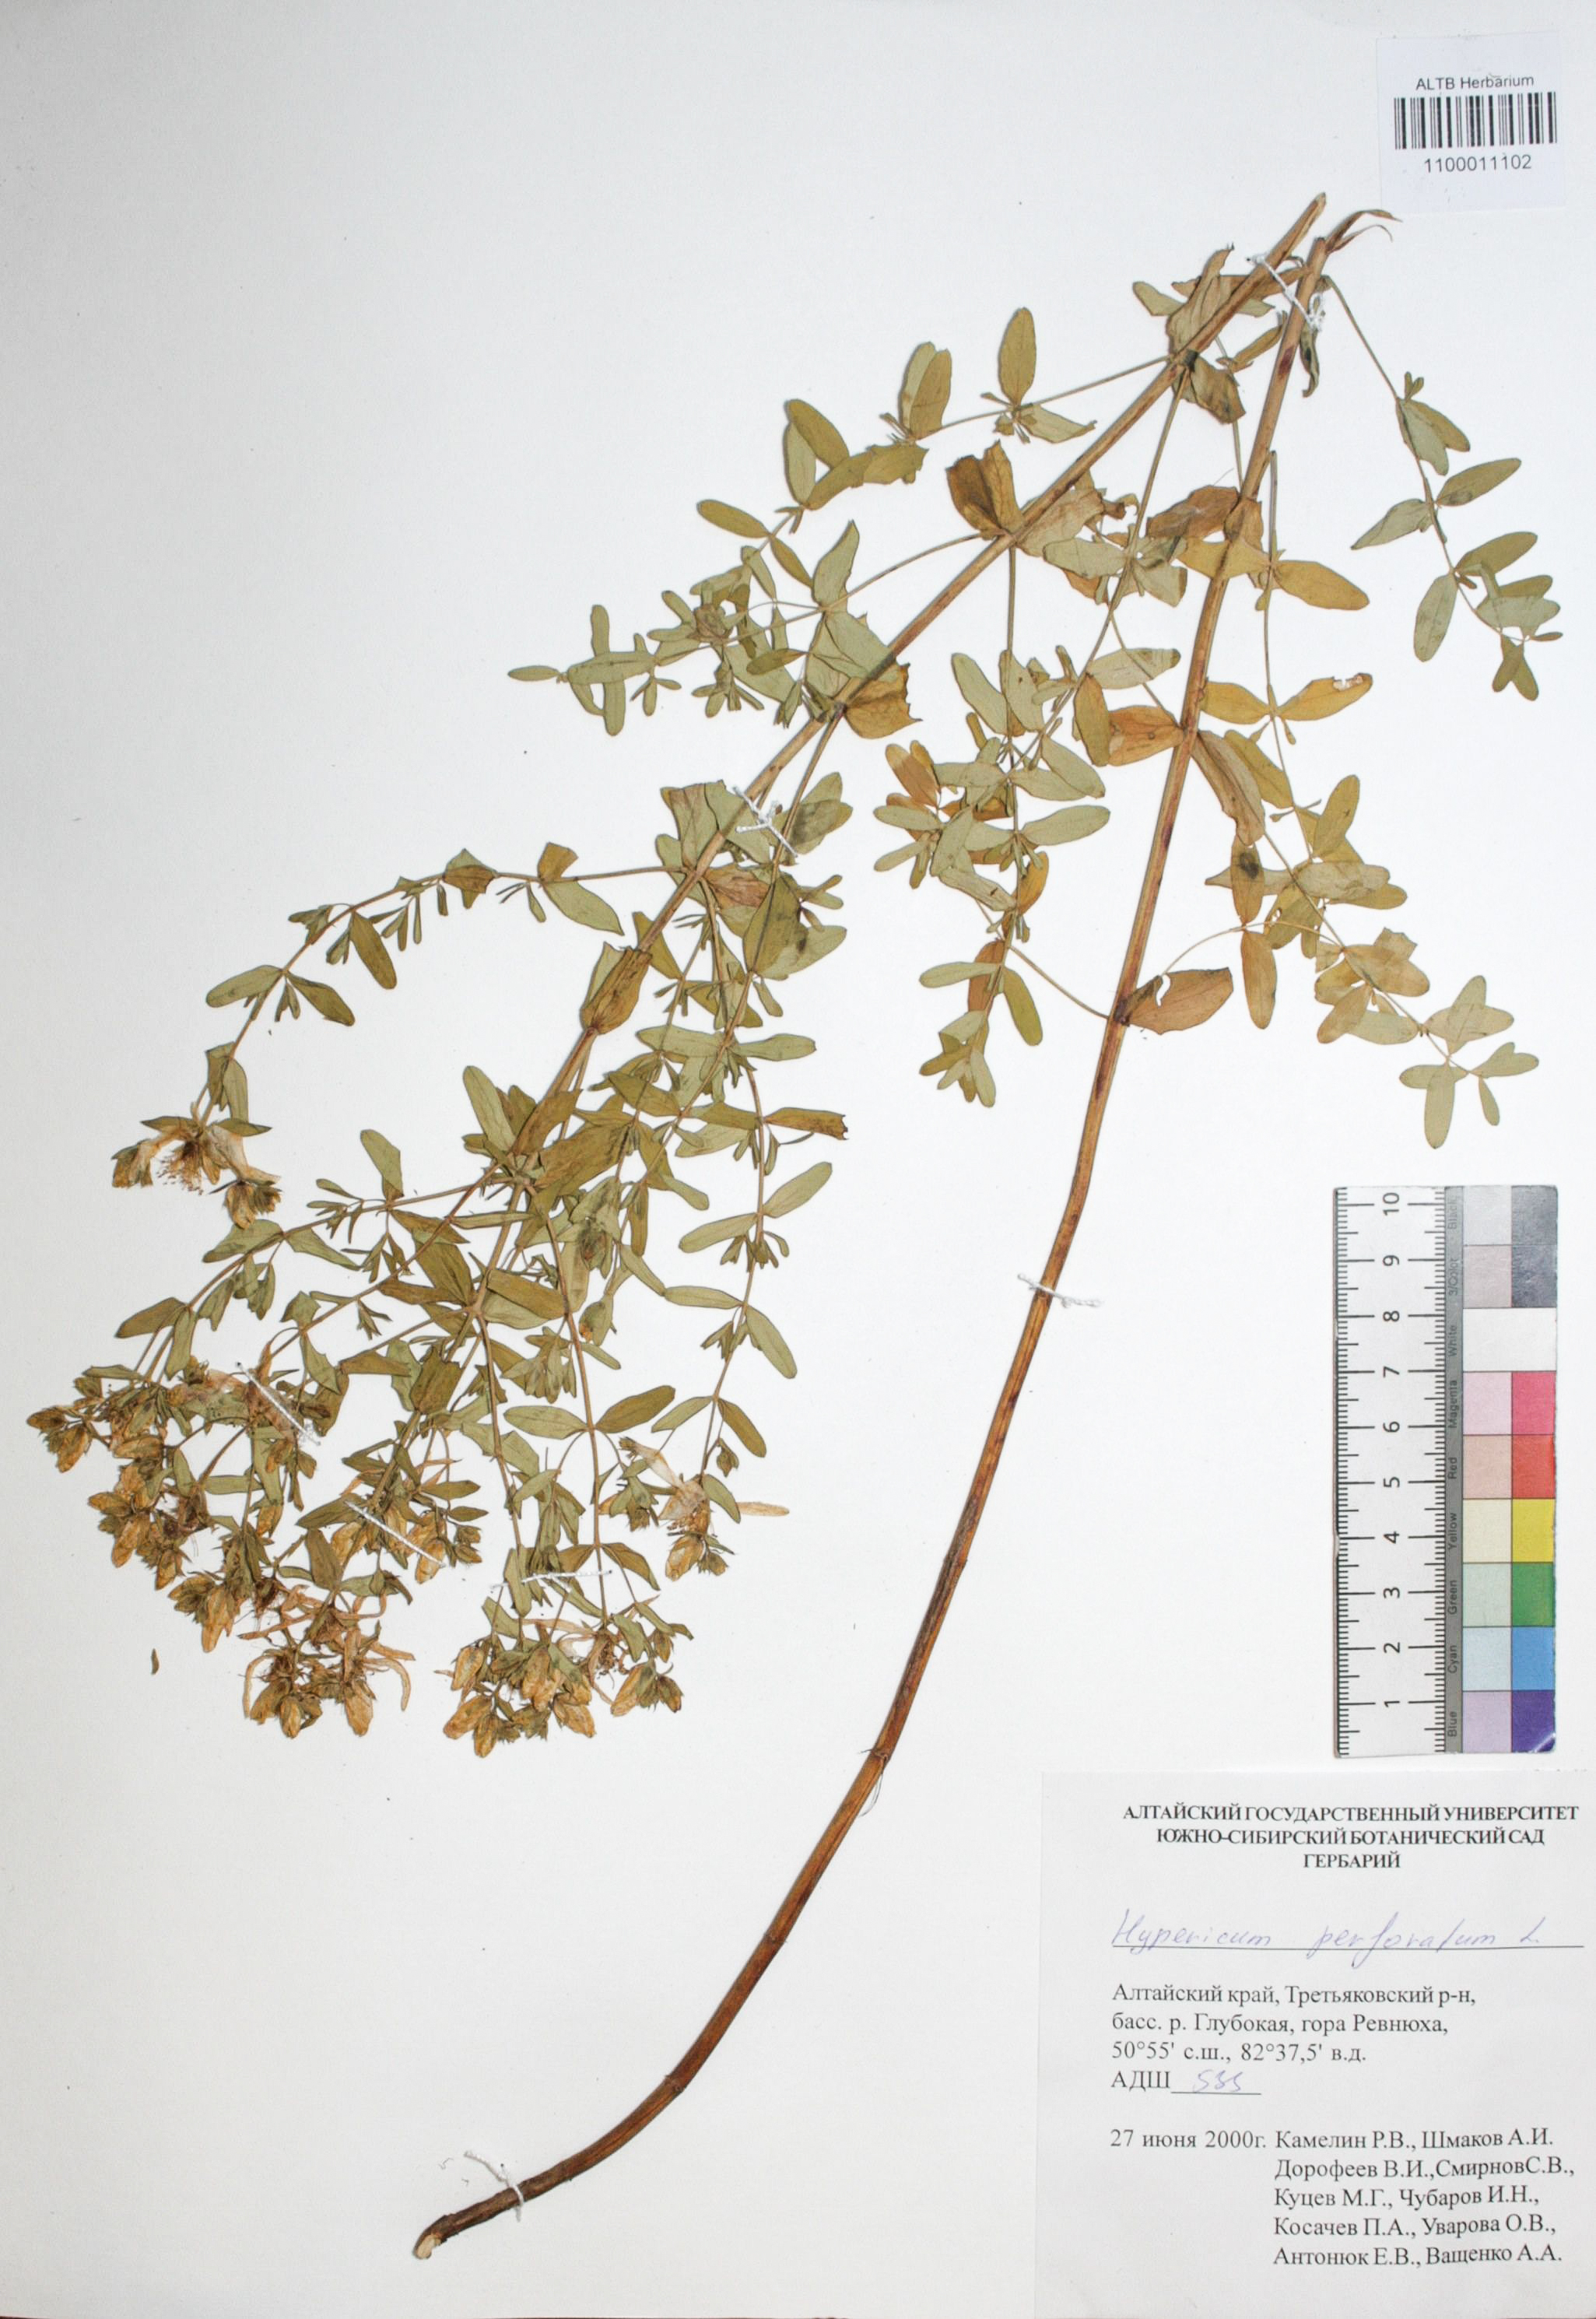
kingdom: Plantae
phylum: Tracheophyta
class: Magnoliopsida
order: Malpighiales
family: Hypericaceae
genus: Hypericum
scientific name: Hypericum perforatum
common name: Common st. johnswort
